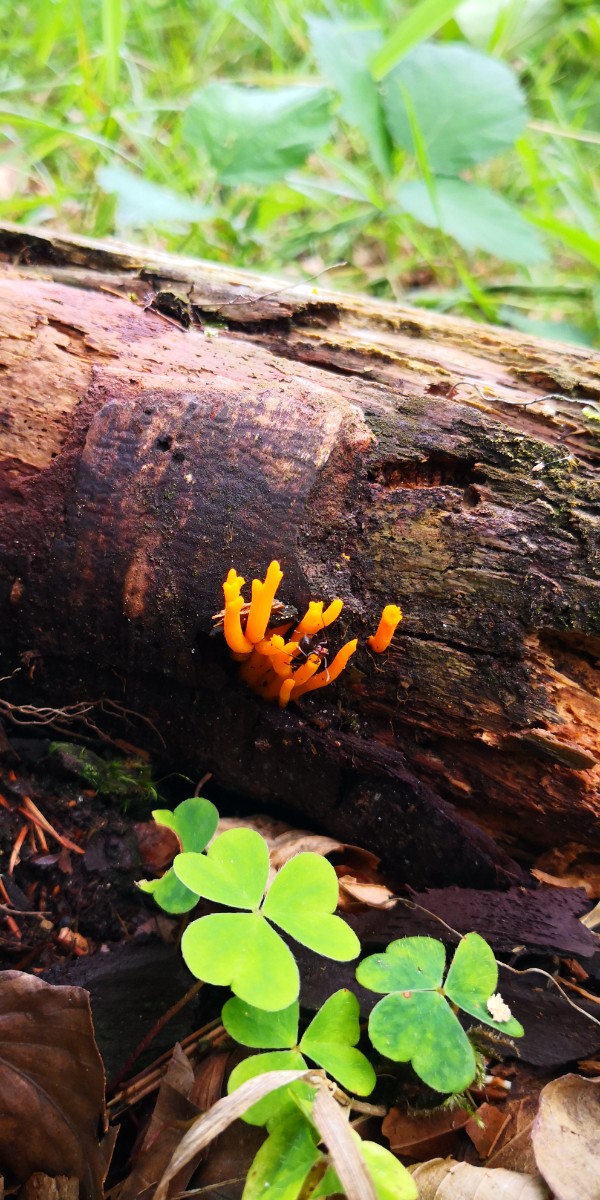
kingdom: Fungi
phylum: Basidiomycota
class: Dacrymycetes
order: Dacrymycetales
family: Dacrymycetaceae
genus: Calocera
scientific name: Calocera cornea
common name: liden guldgaffel
